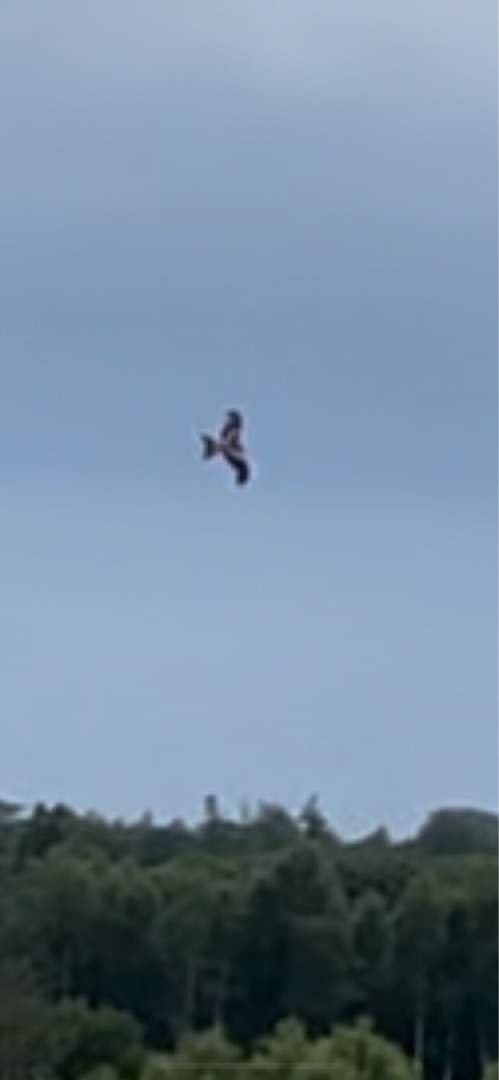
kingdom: Animalia
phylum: Chordata
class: Aves
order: Accipitriformes
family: Accipitridae
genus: Milvus
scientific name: Milvus milvus
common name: Rød glente
